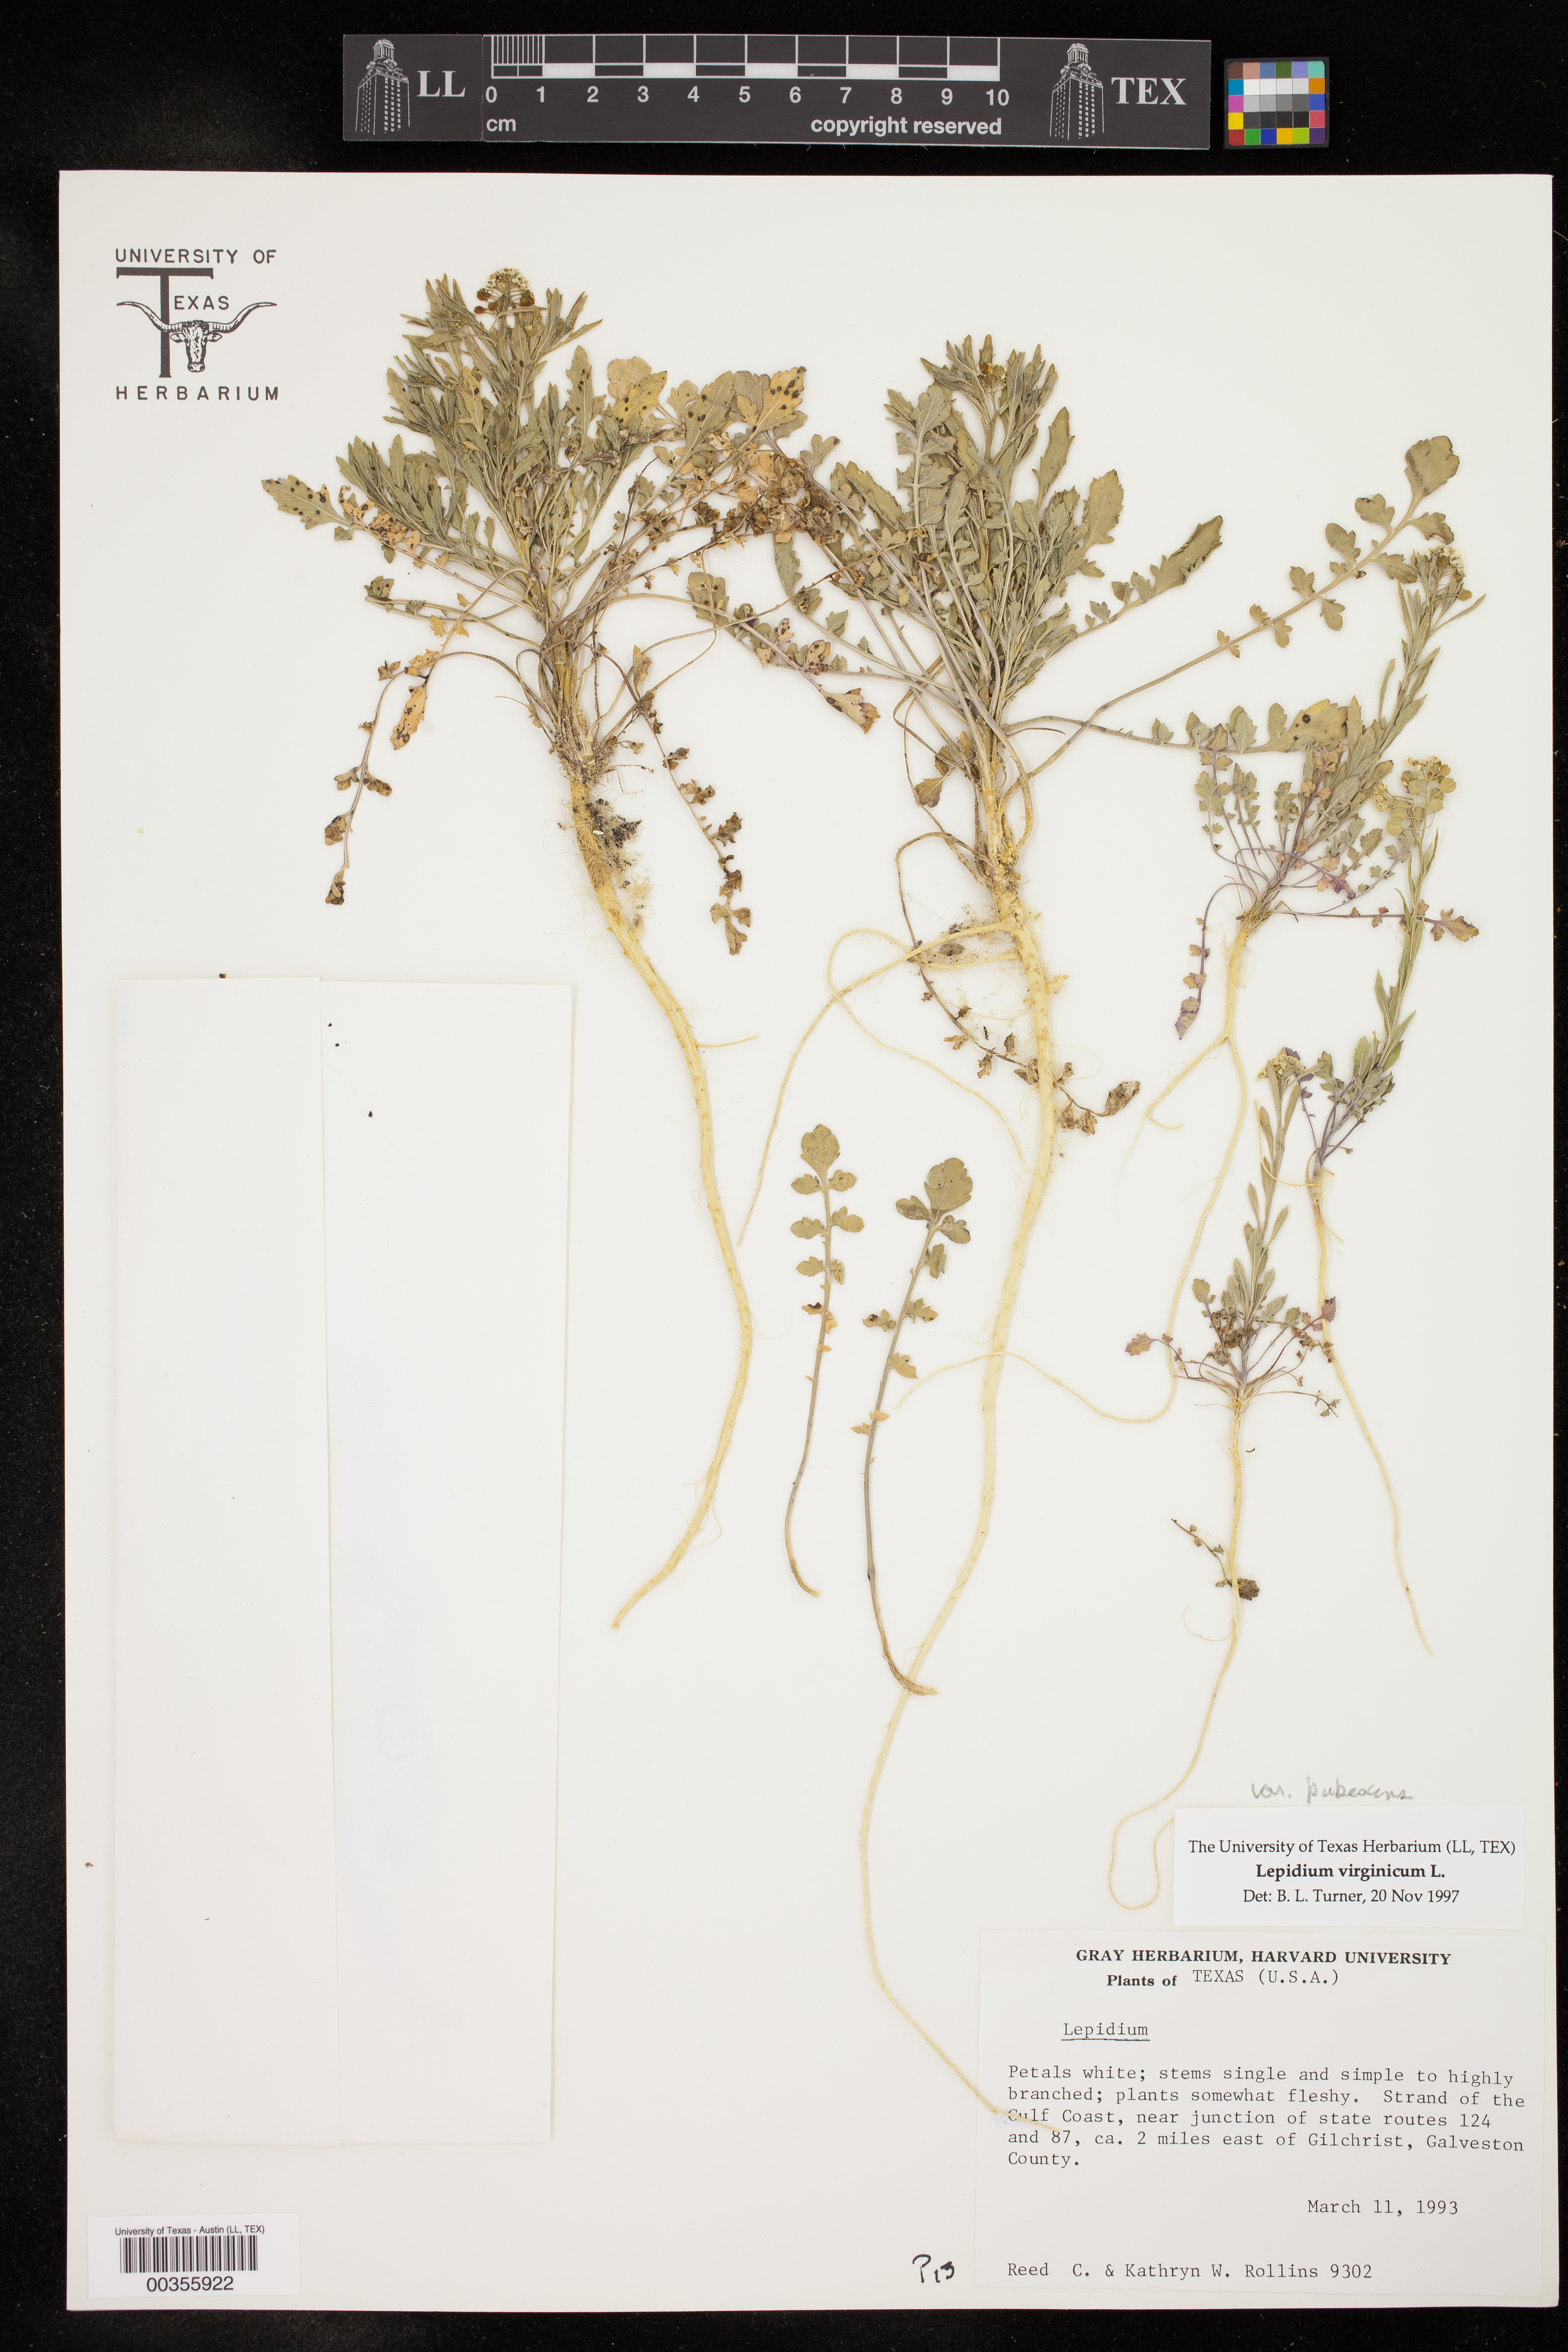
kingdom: Plantae
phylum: Tracheophyta
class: Magnoliopsida
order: Brassicales
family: Brassicaceae
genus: Lepidium
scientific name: Lepidium virginicum
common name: Least pepperwort
